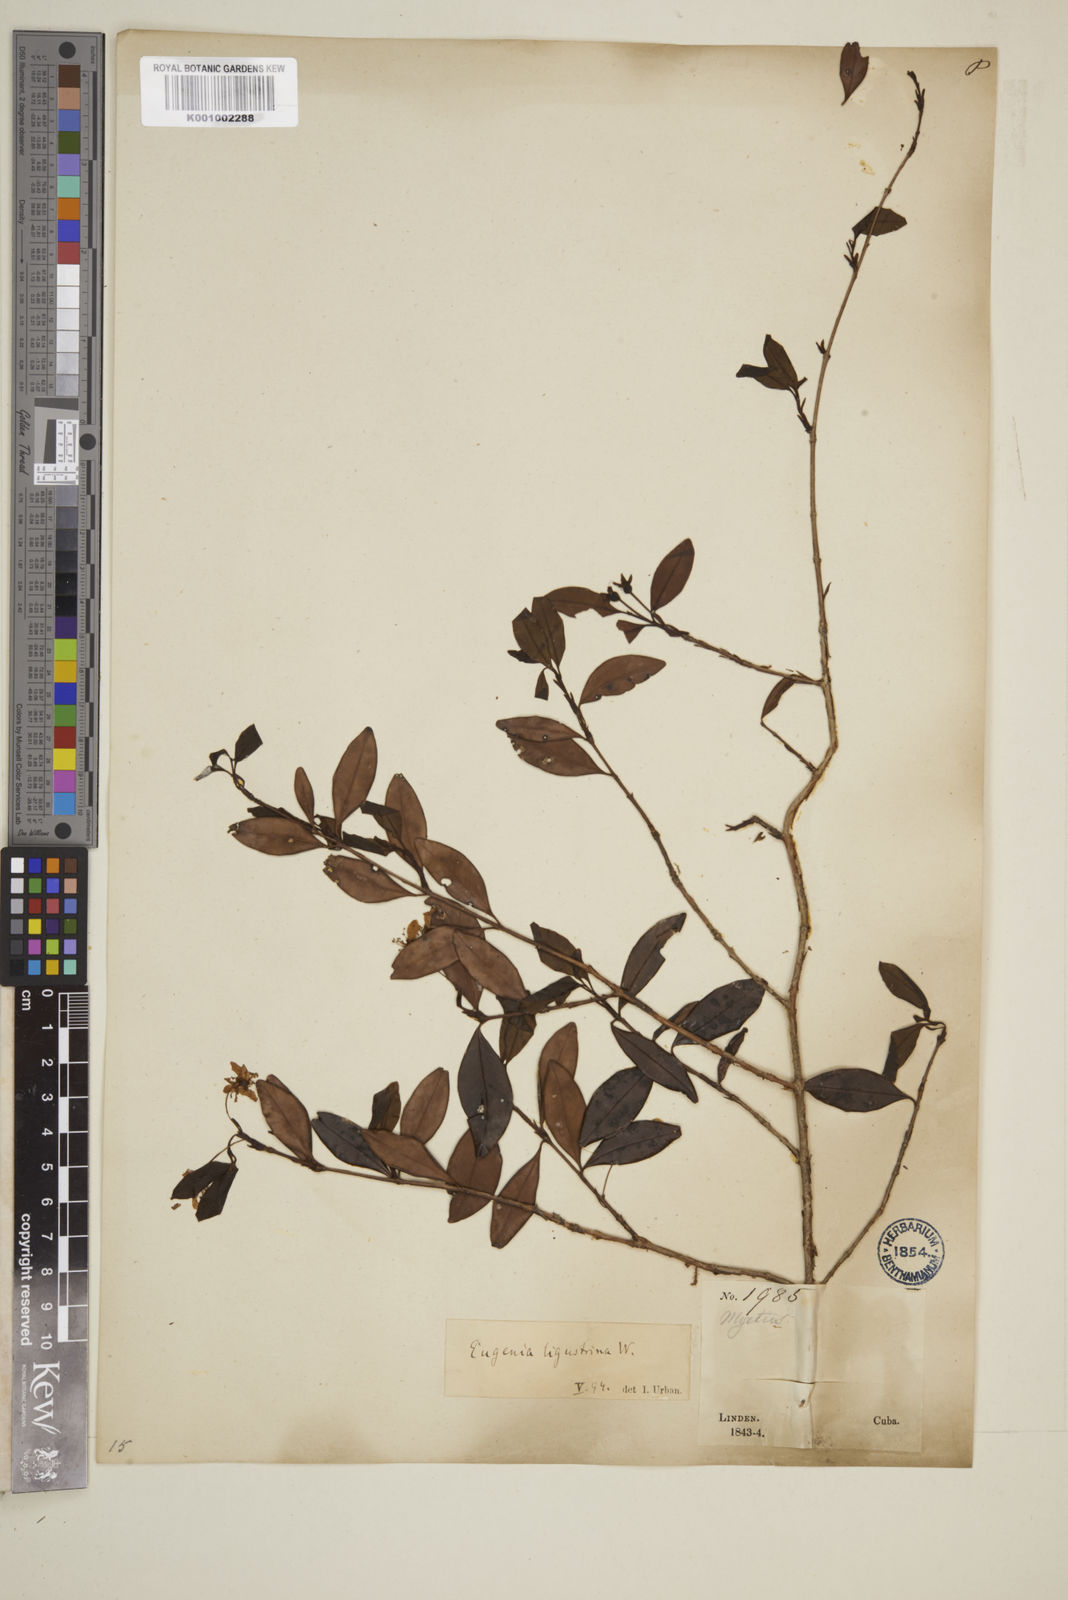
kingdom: Plantae
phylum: Tracheophyta
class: Magnoliopsida
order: Myrtales
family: Myrtaceae
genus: Eugenia
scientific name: Eugenia ligustrina
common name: Privet stopper
